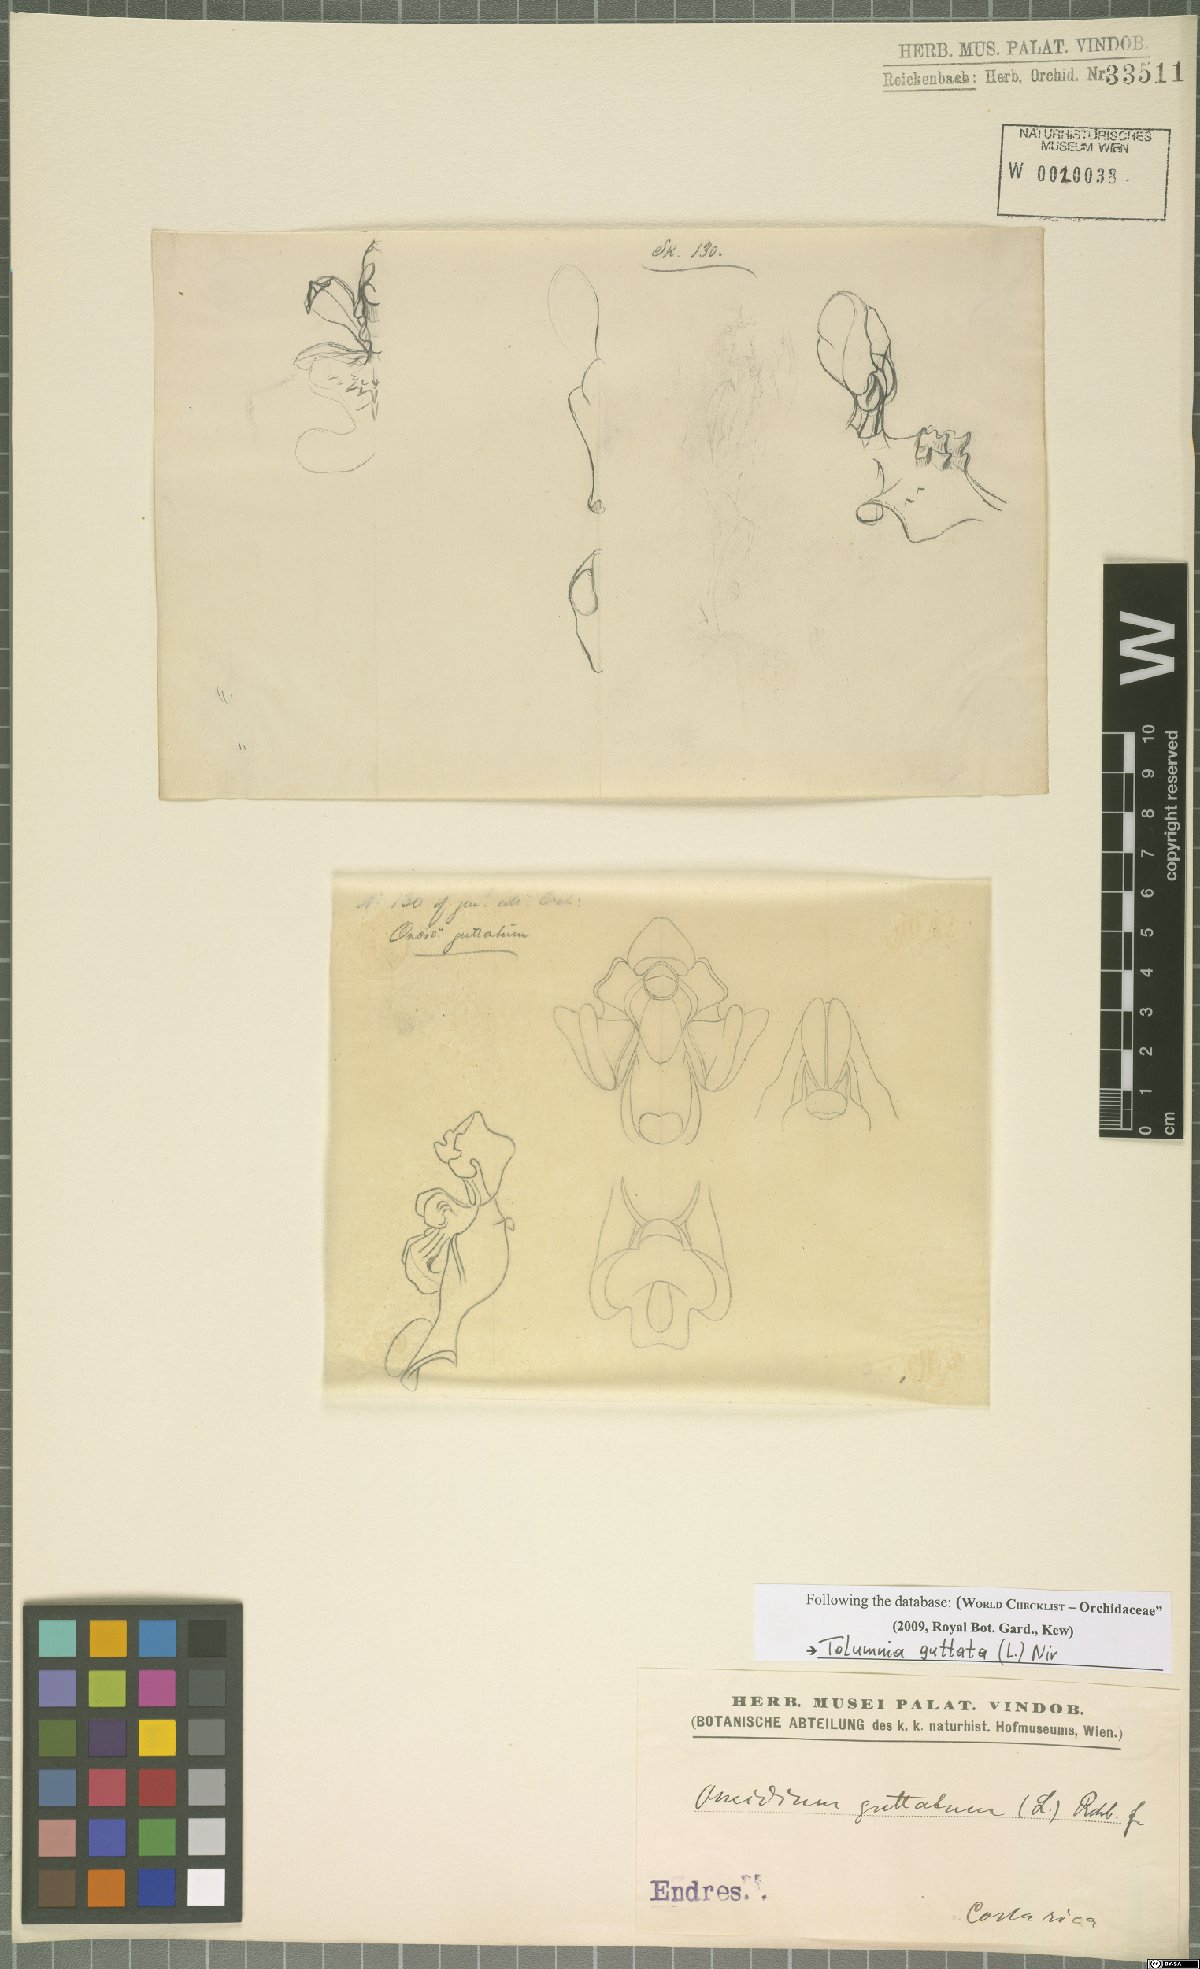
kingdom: Plantae
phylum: Tracheophyta
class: Liliopsida
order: Asparagales
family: Orchidaceae
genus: Tolumnia
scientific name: Tolumnia guttata
